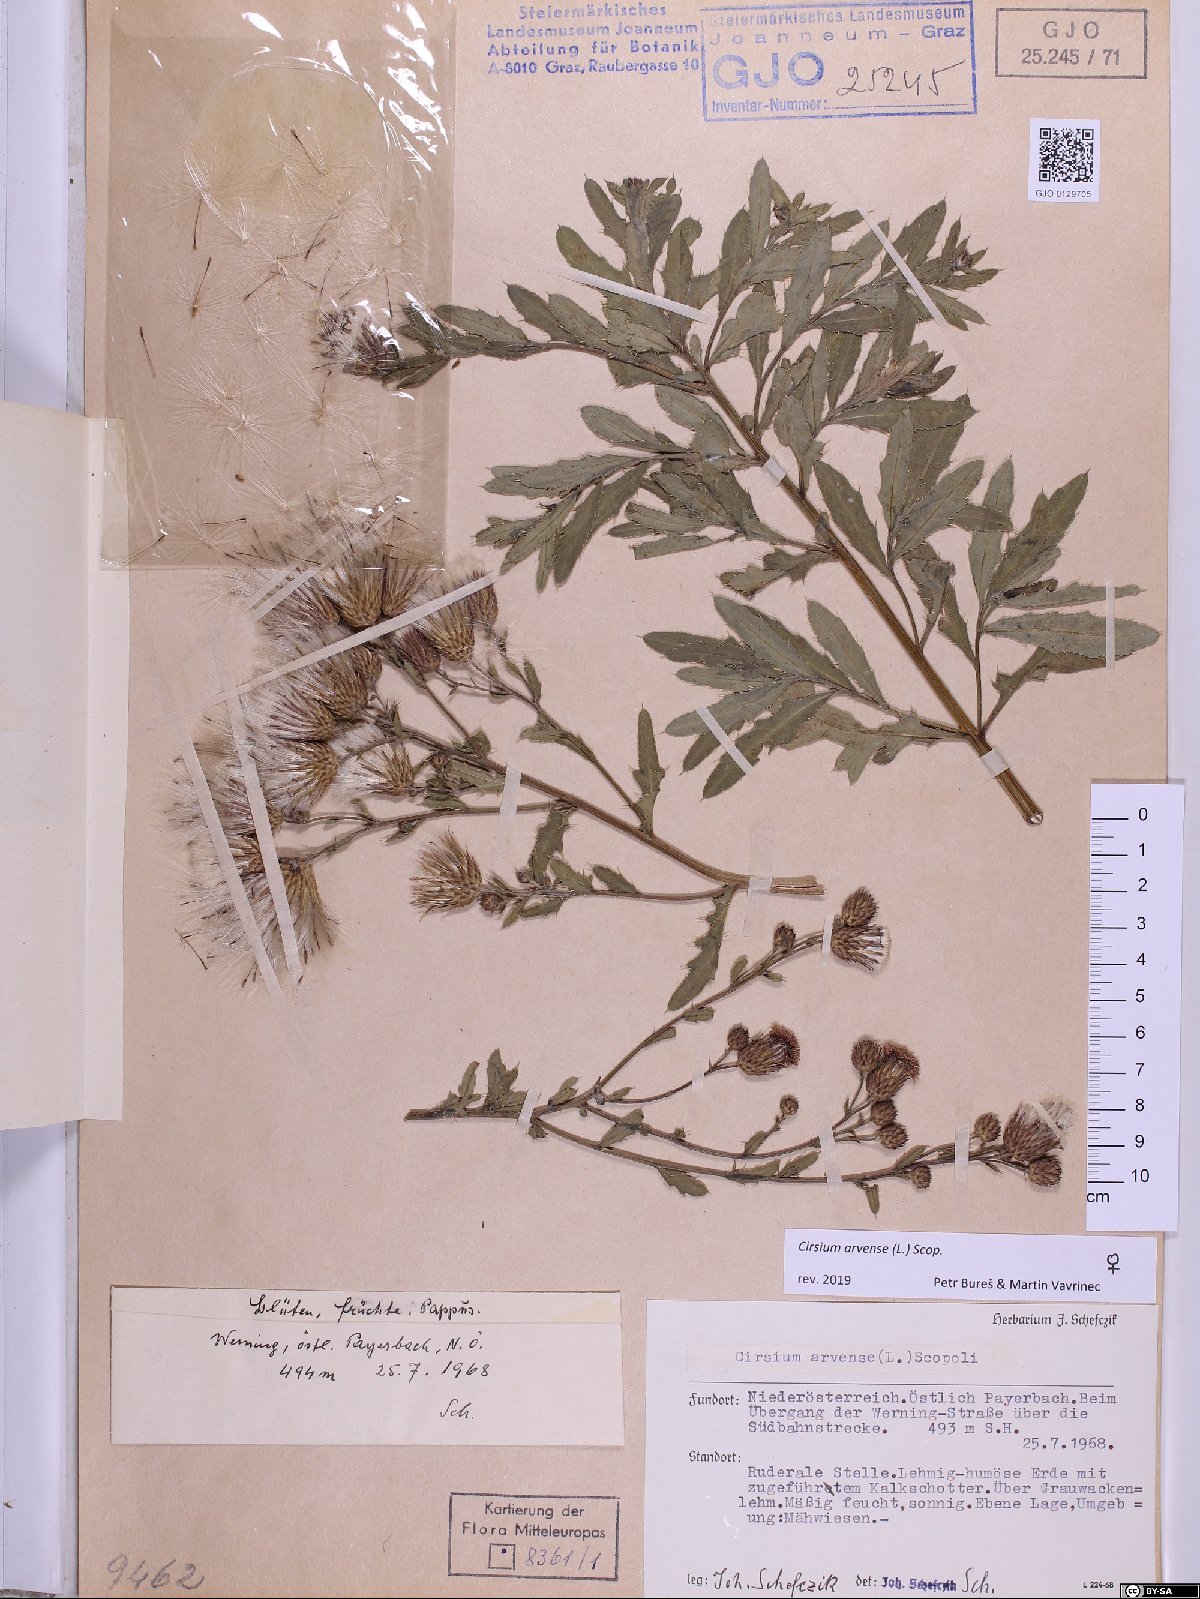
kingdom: Plantae
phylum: Tracheophyta
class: Magnoliopsida
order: Asterales
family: Asteraceae
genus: Cirsium
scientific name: Cirsium arvense
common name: Creeping thistle
